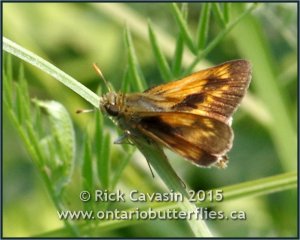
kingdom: Animalia
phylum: Arthropoda
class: Insecta
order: Lepidoptera
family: Hesperiidae
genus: Polites
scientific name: Polites
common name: Long Dash Skipper
